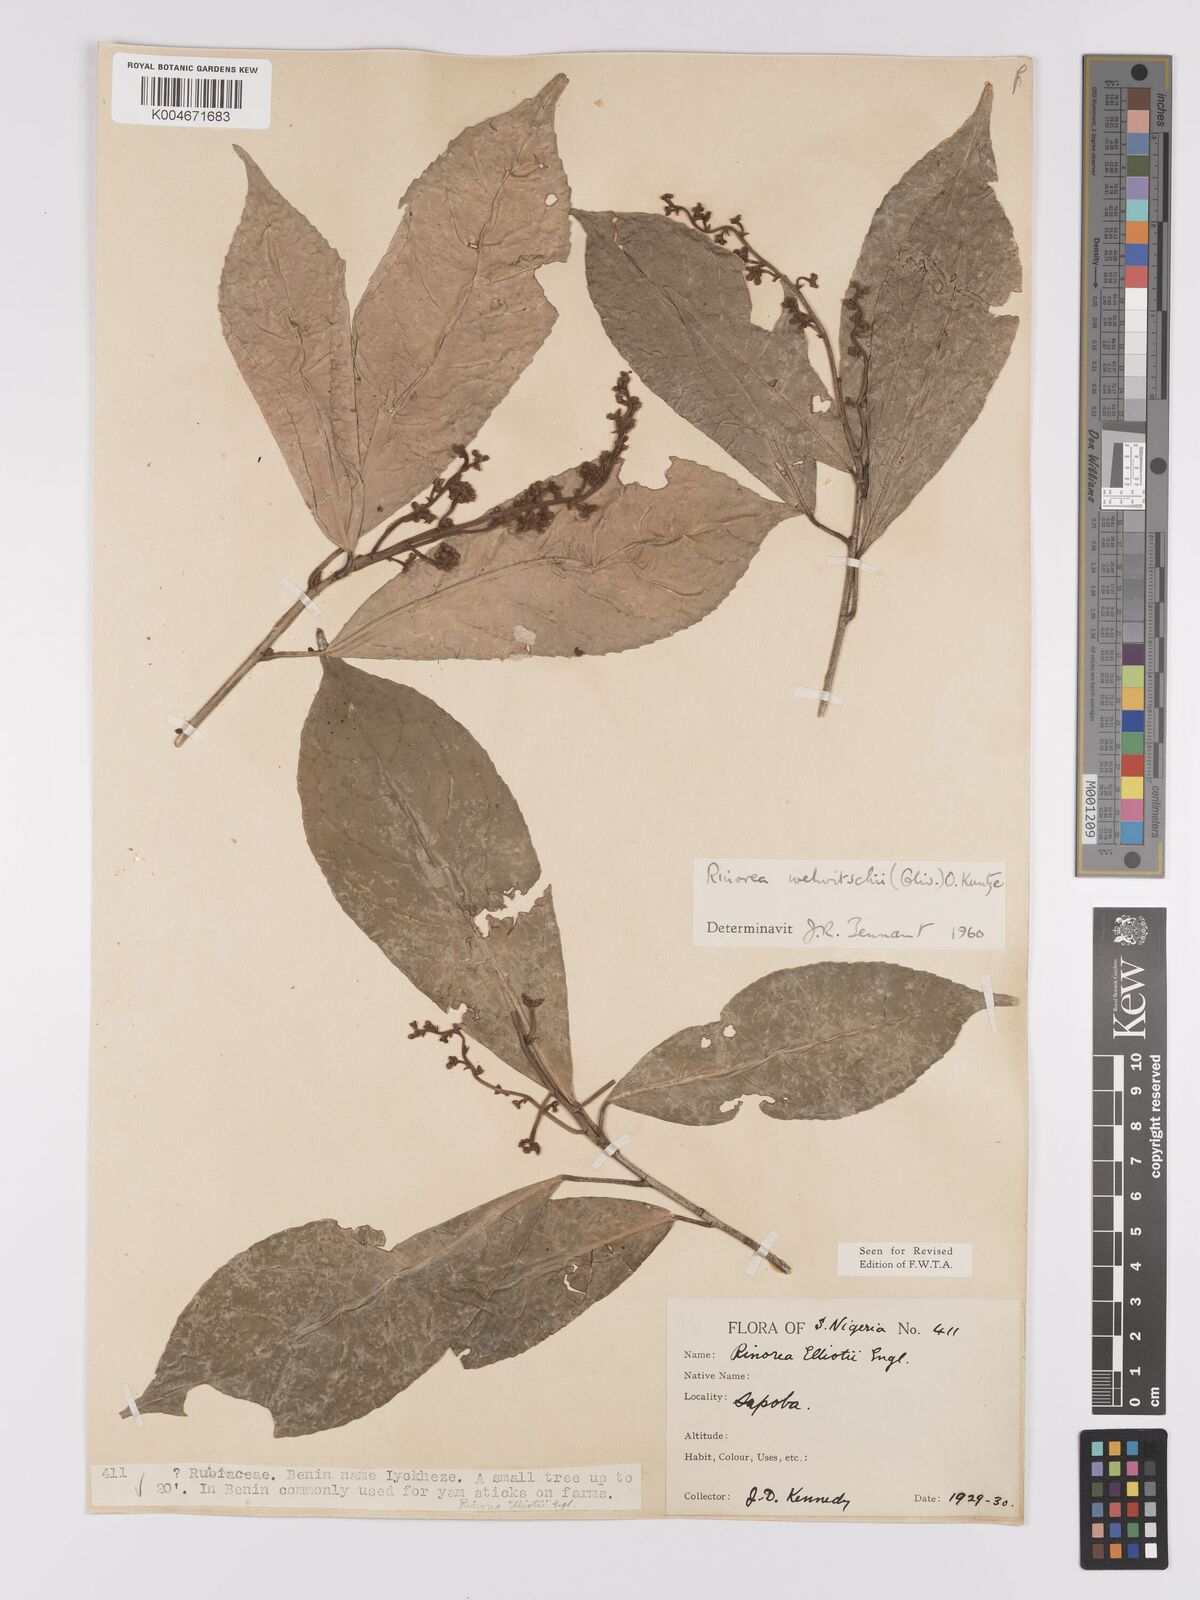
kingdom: Plantae
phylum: Tracheophyta
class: Magnoliopsida
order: Malpighiales
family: Violaceae
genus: Rinorea
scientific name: Rinorea welwitschii
